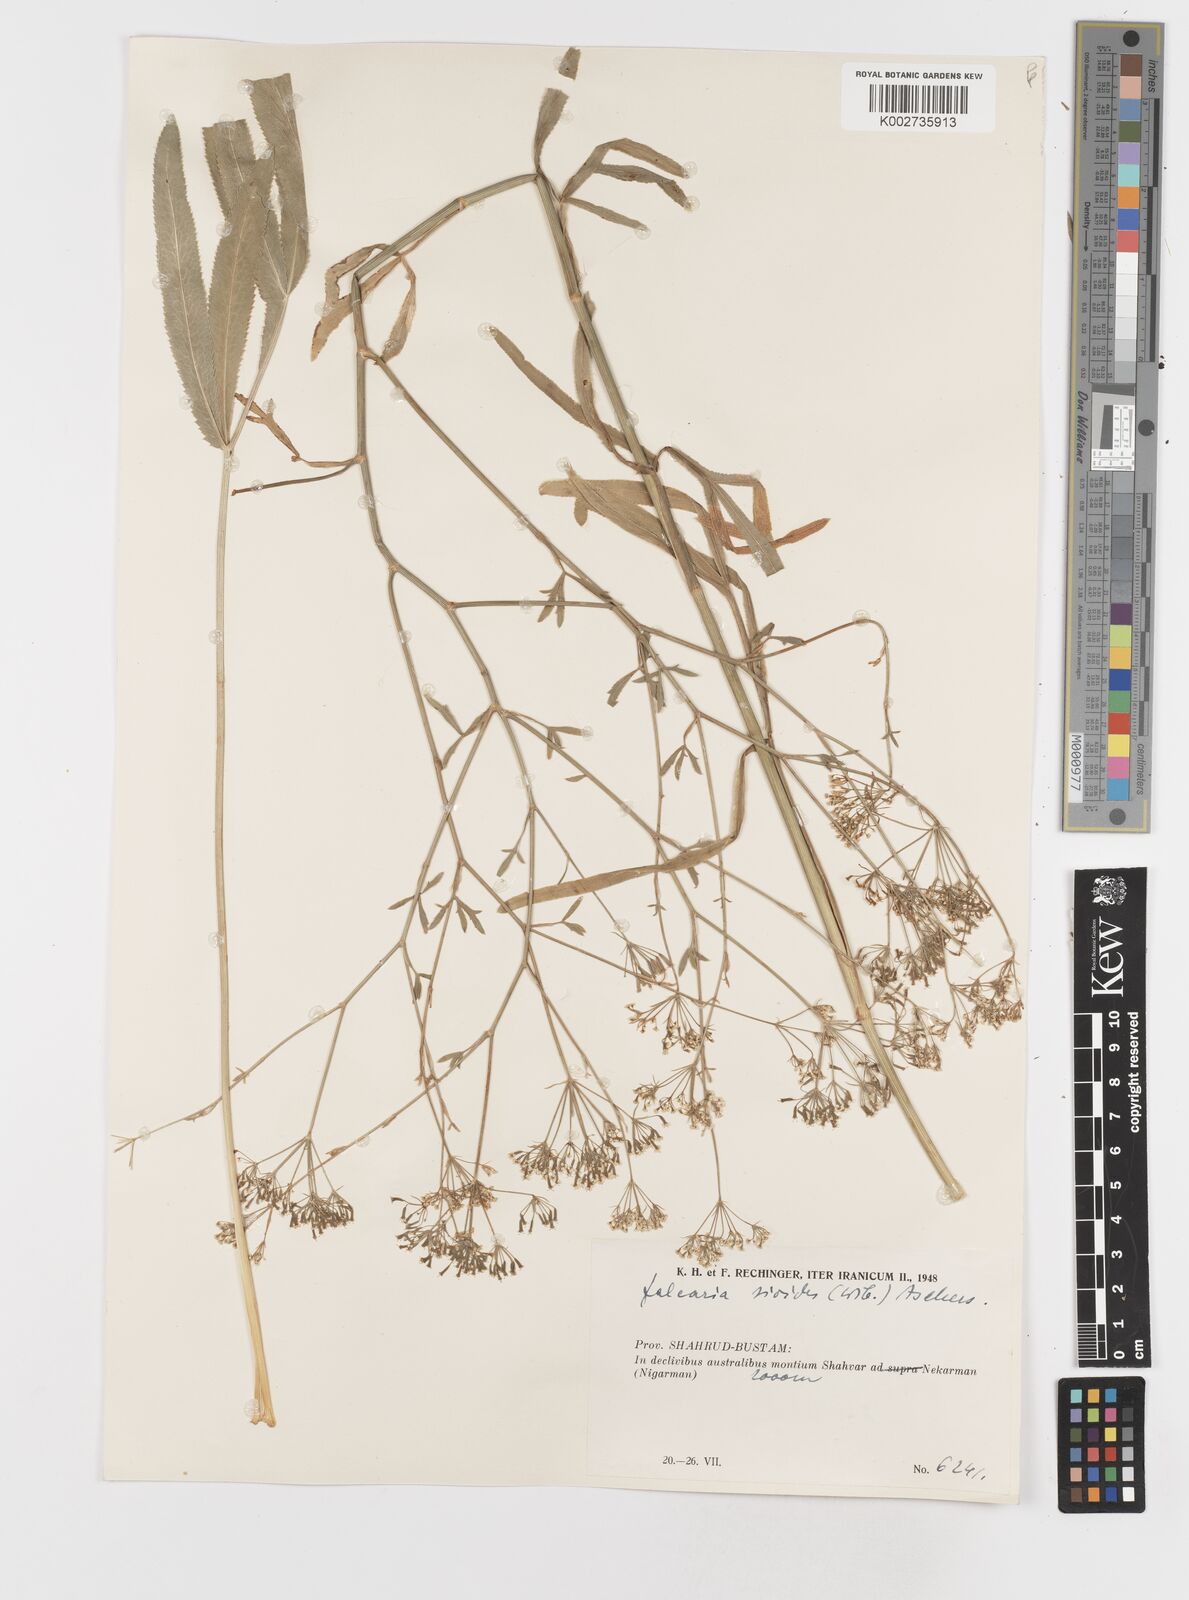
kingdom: Plantae
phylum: Tracheophyta
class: Magnoliopsida
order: Apiales
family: Apiaceae
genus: Falcaria
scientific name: Falcaria vulgaris
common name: Longleaf
